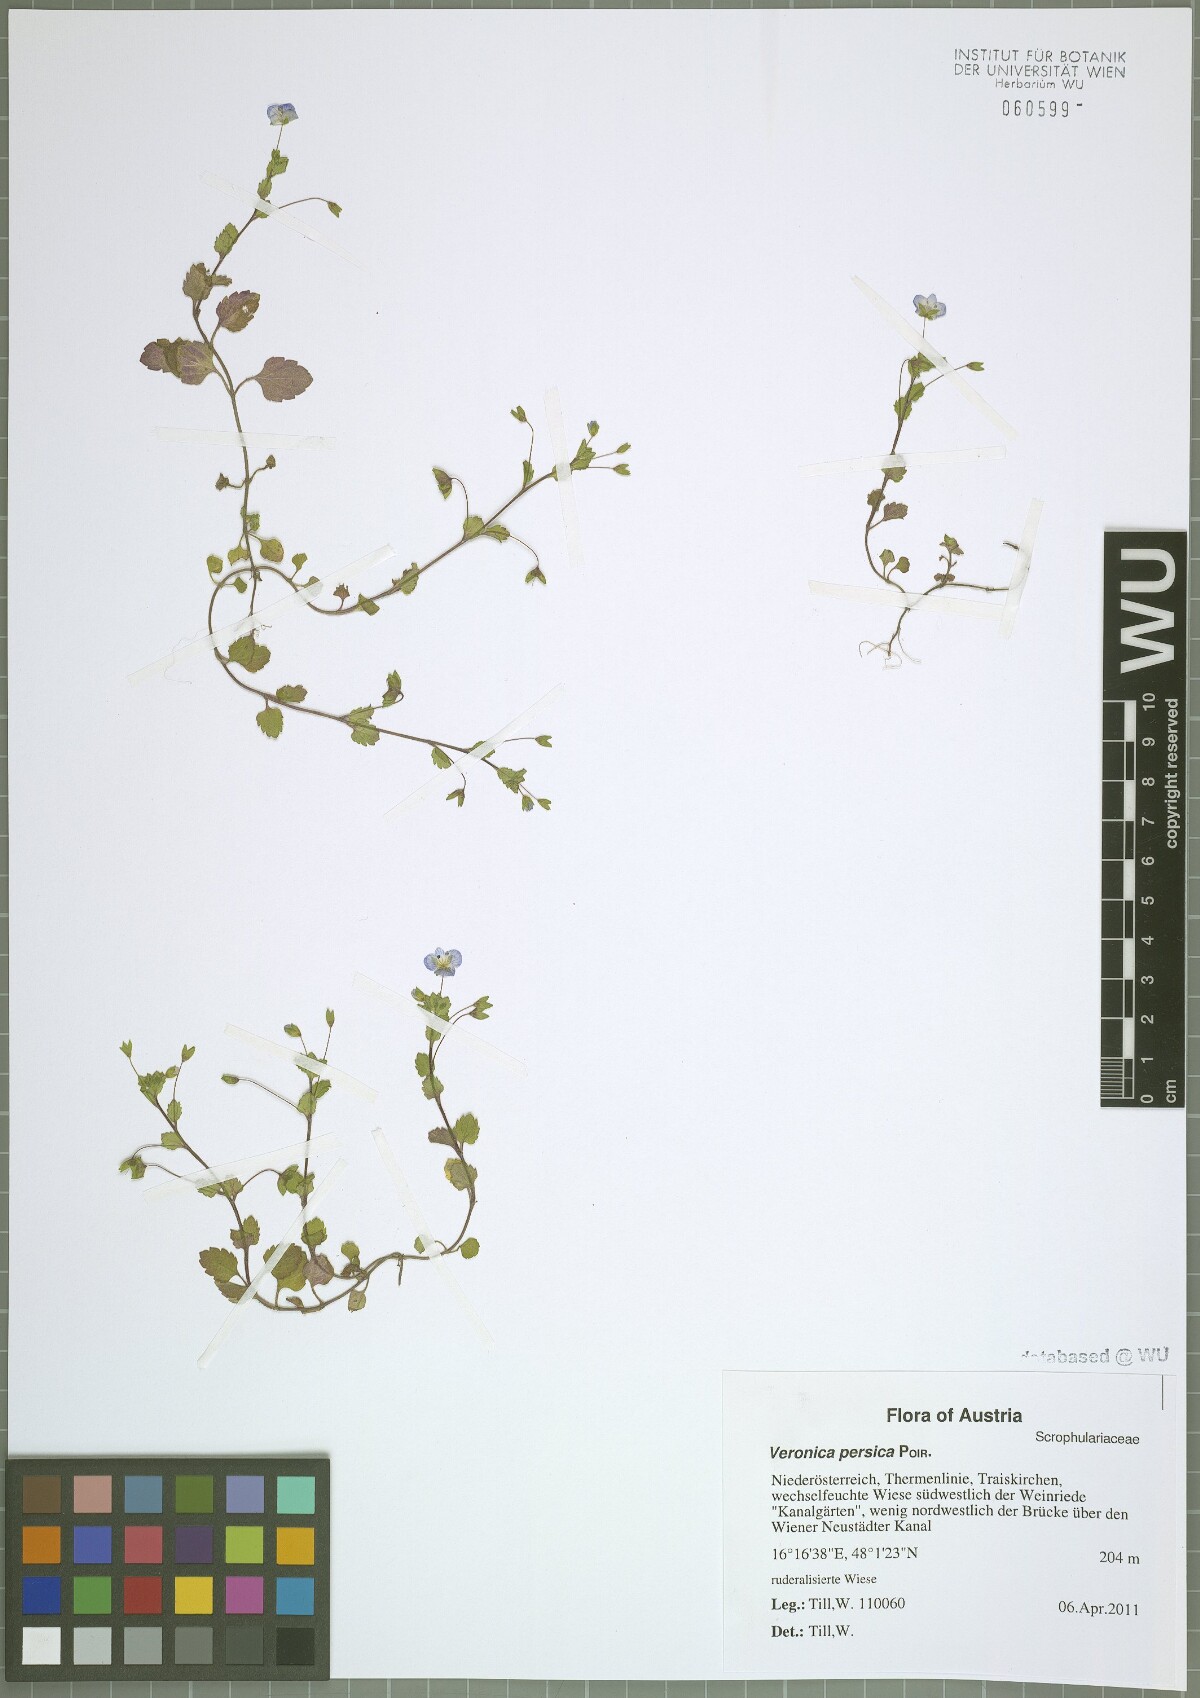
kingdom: Plantae
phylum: Tracheophyta
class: Magnoliopsida
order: Lamiales
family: Plantaginaceae
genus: Veronica
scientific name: Veronica persica
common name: Common field-speedwell
